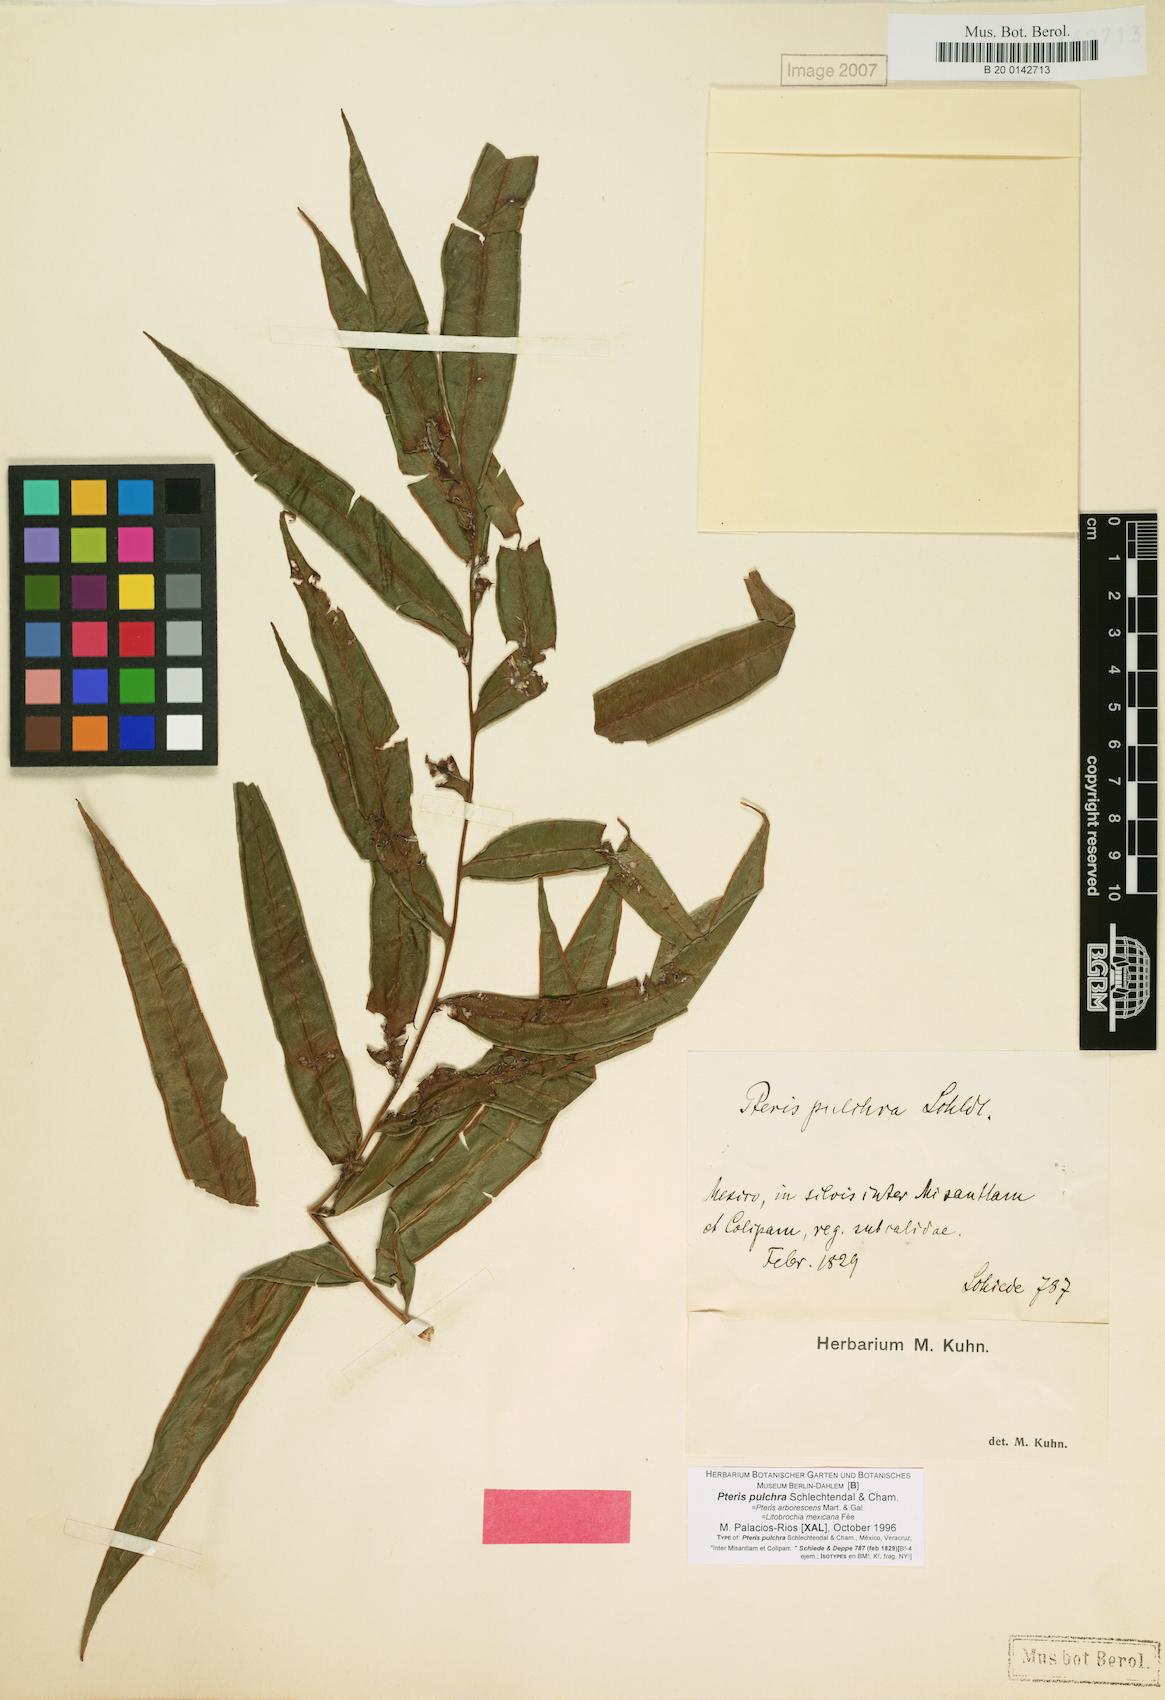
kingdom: Plantae
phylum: Tracheophyta
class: Polypodiopsida
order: Polypodiales
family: Pteridaceae
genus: Pteris
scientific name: Pteris pulchra
